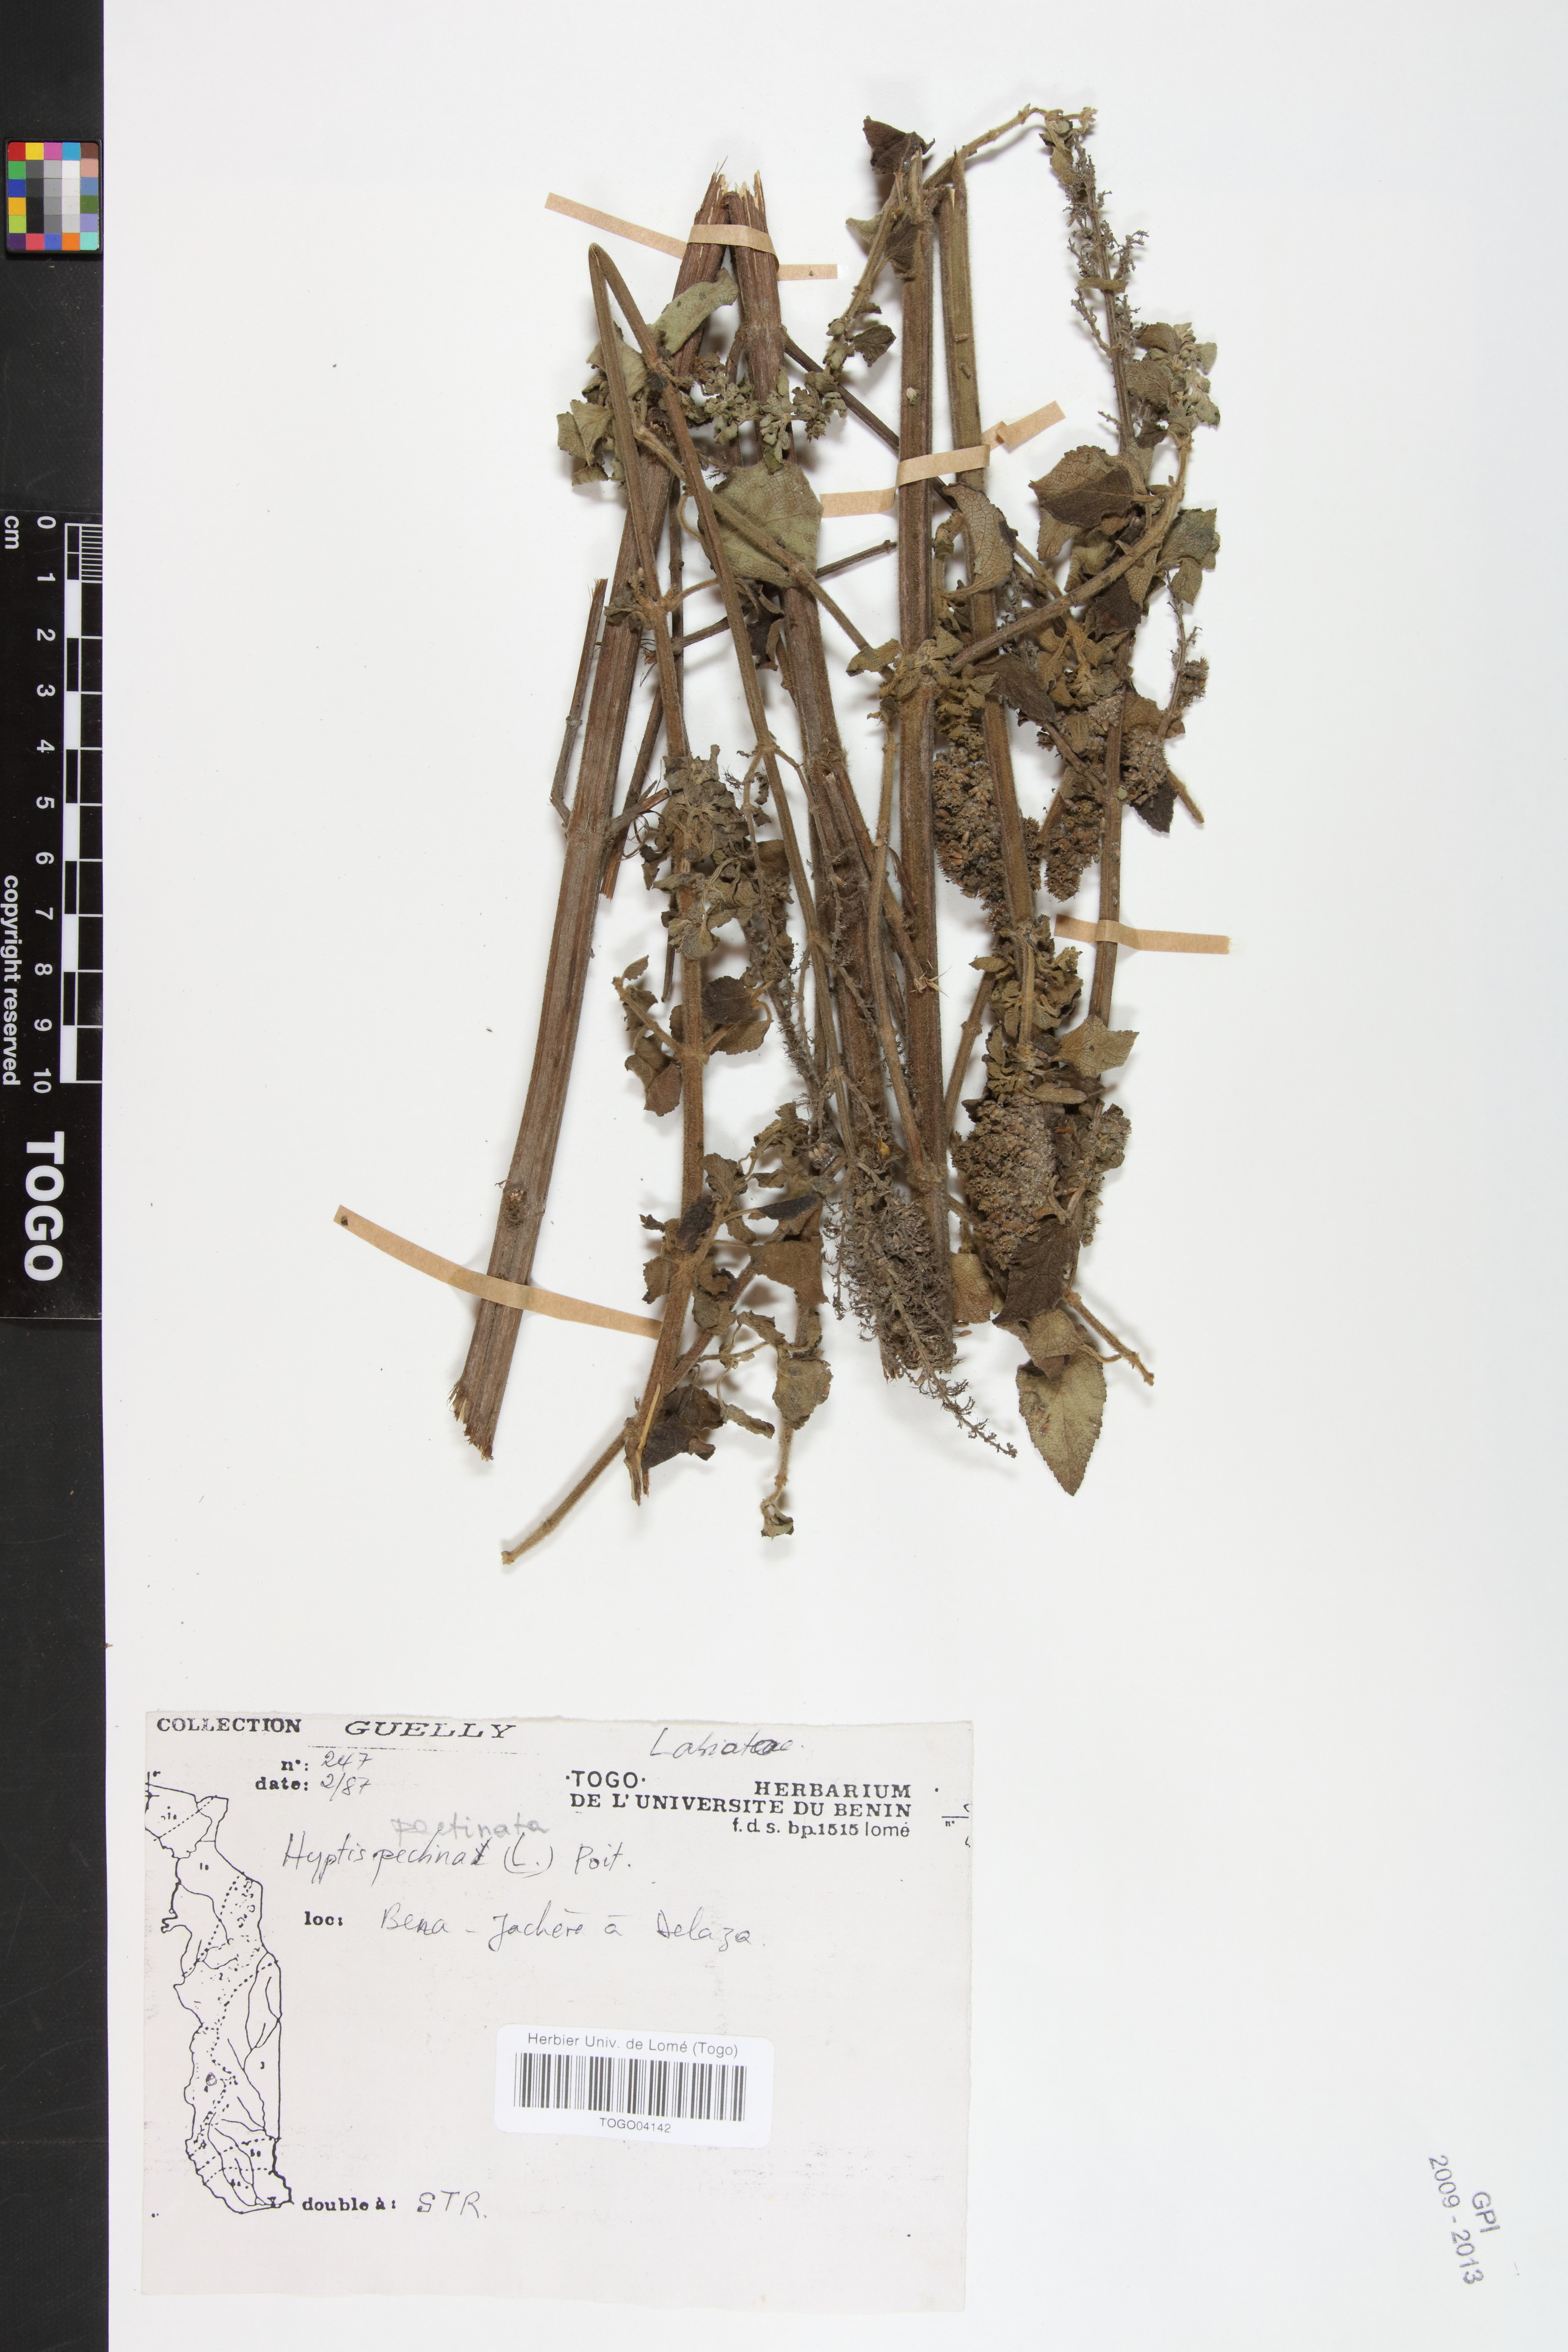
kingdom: Plantae
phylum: Tracheophyta
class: Magnoliopsida
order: Lamiales
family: Lamiaceae
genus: Mesosphaerum
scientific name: Mesosphaerum pectinatum
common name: Comb hyptis
